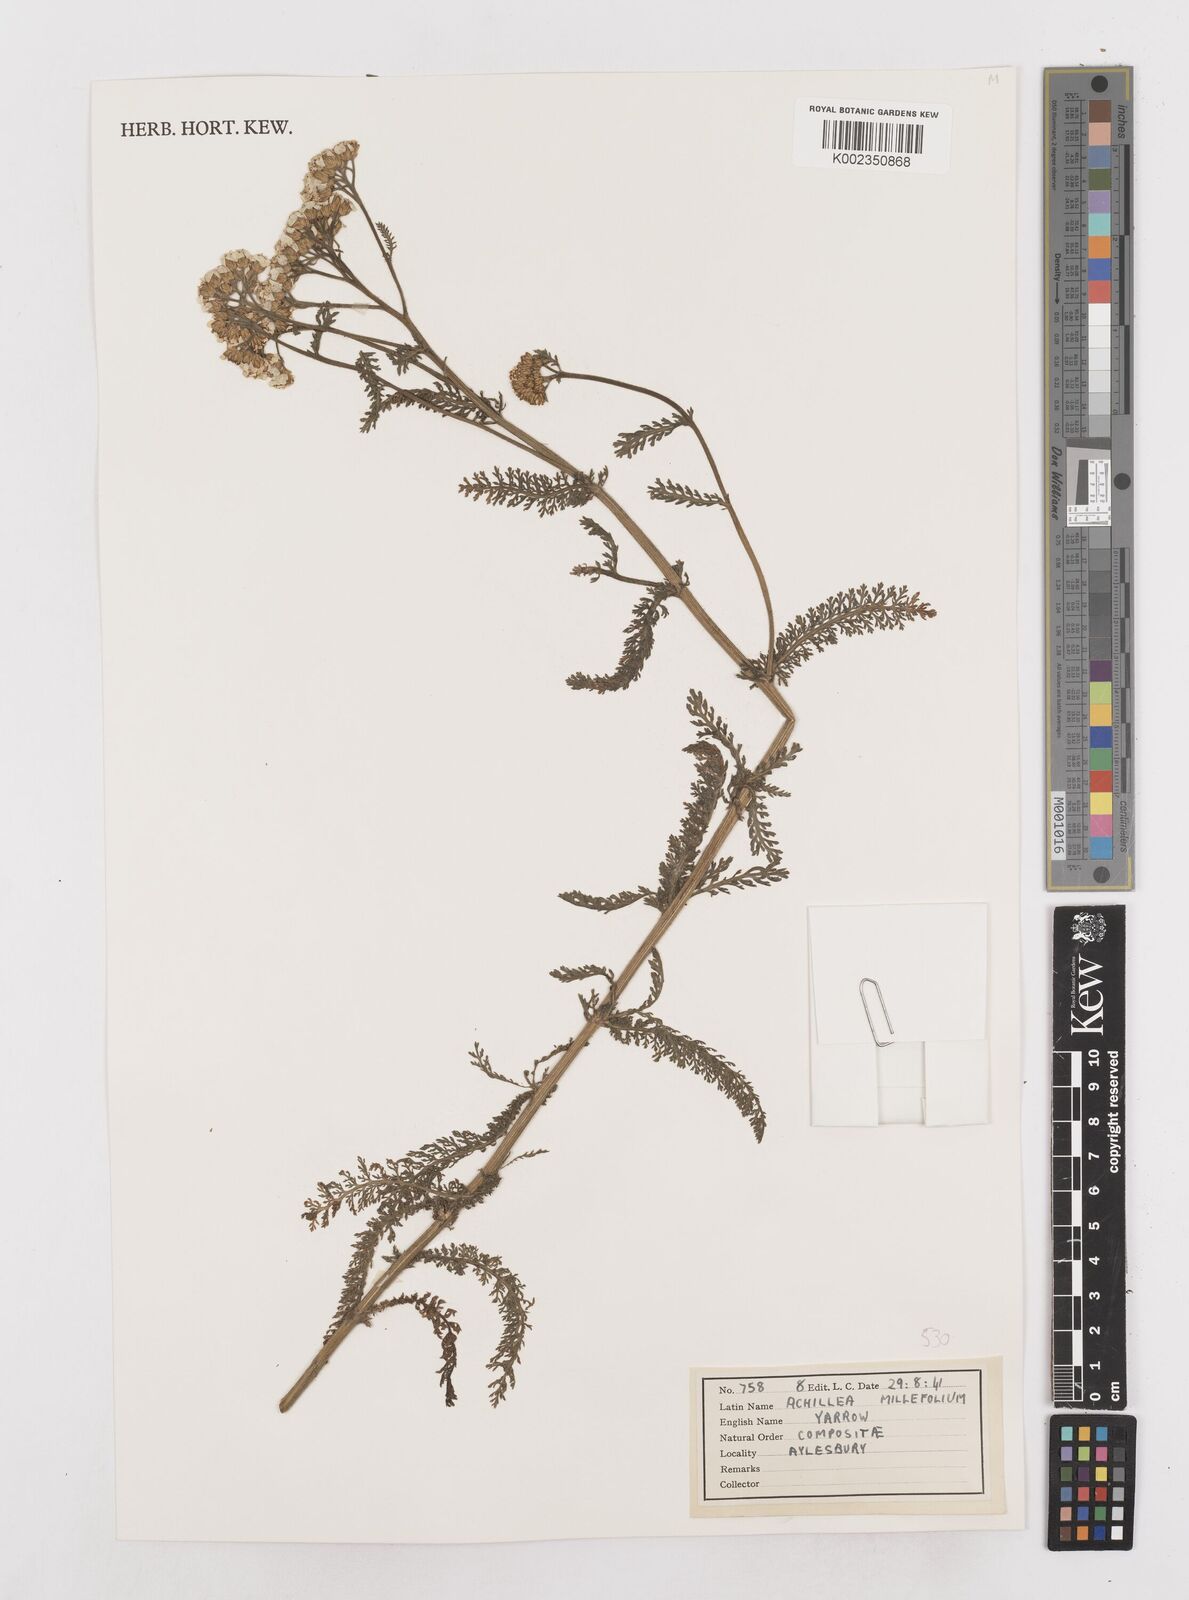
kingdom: Plantae
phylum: Tracheophyta
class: Magnoliopsida
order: Asterales
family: Asteraceae
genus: Achillea
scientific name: Achillea millefolium
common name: Yarrow
